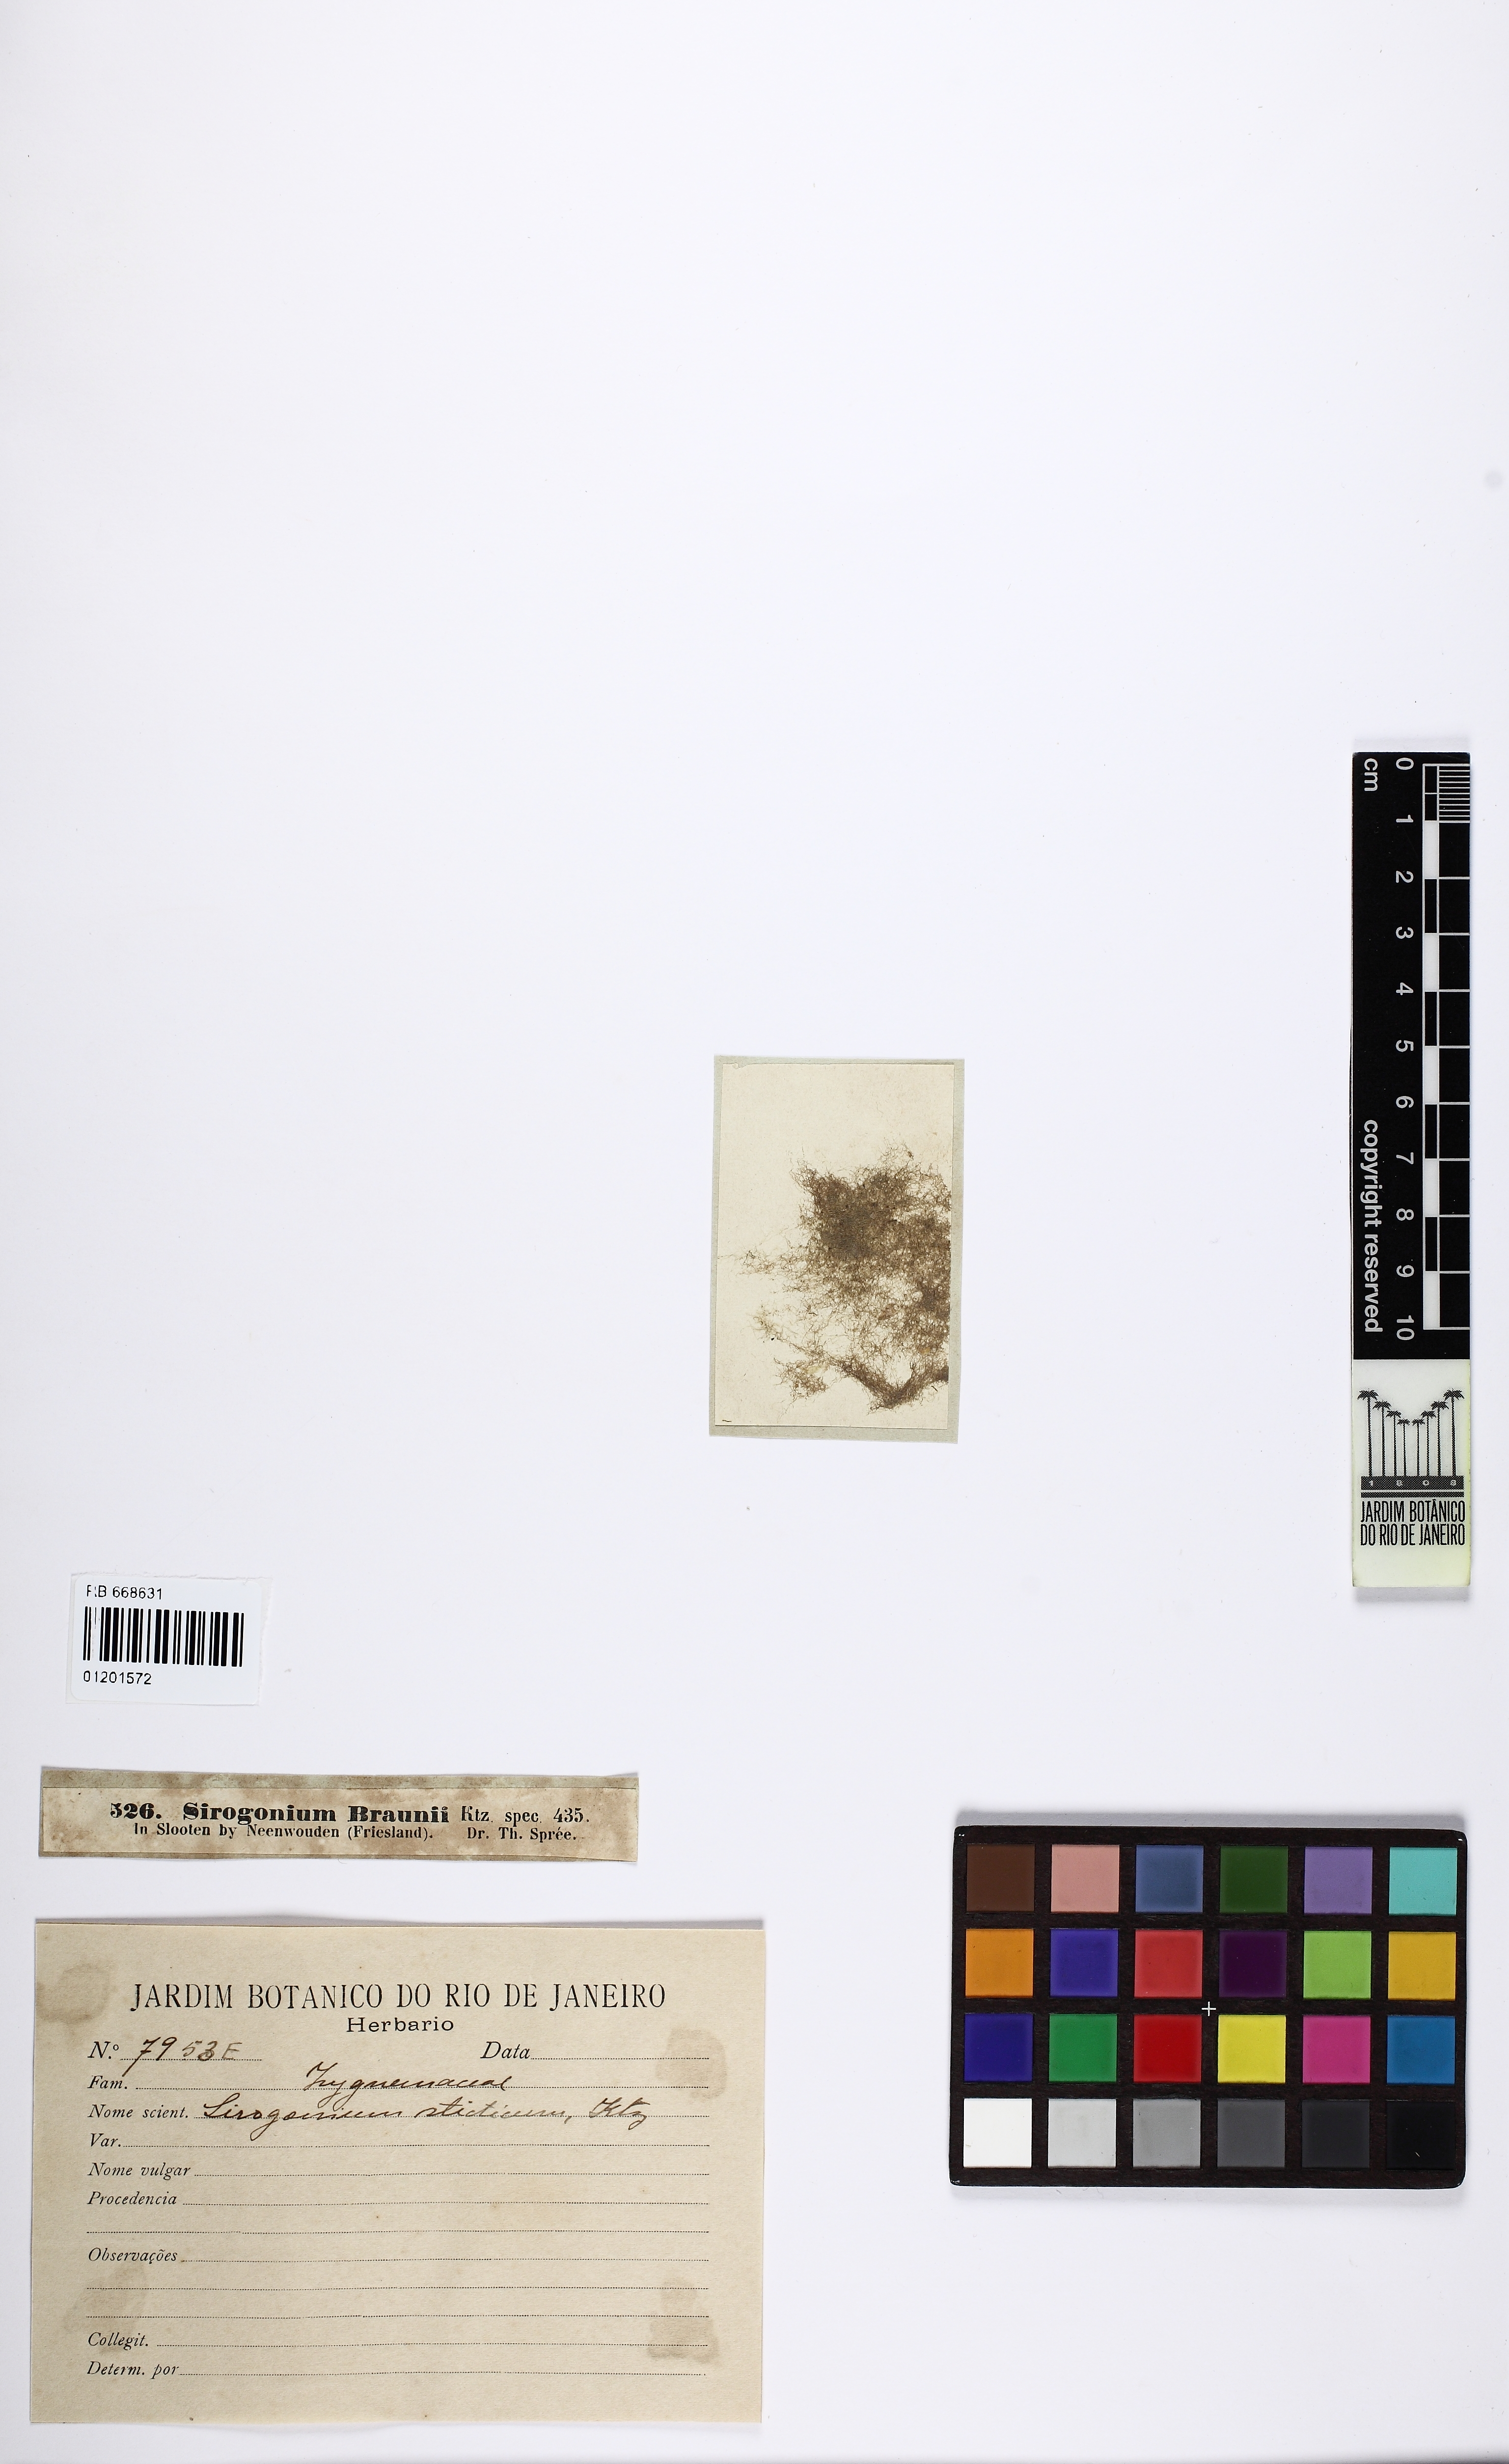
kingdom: Plantae
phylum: Charophyta
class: Zygnematophyceae
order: Zygnematales
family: Zygnemataceae
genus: Sirogonium
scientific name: Sirogonium
